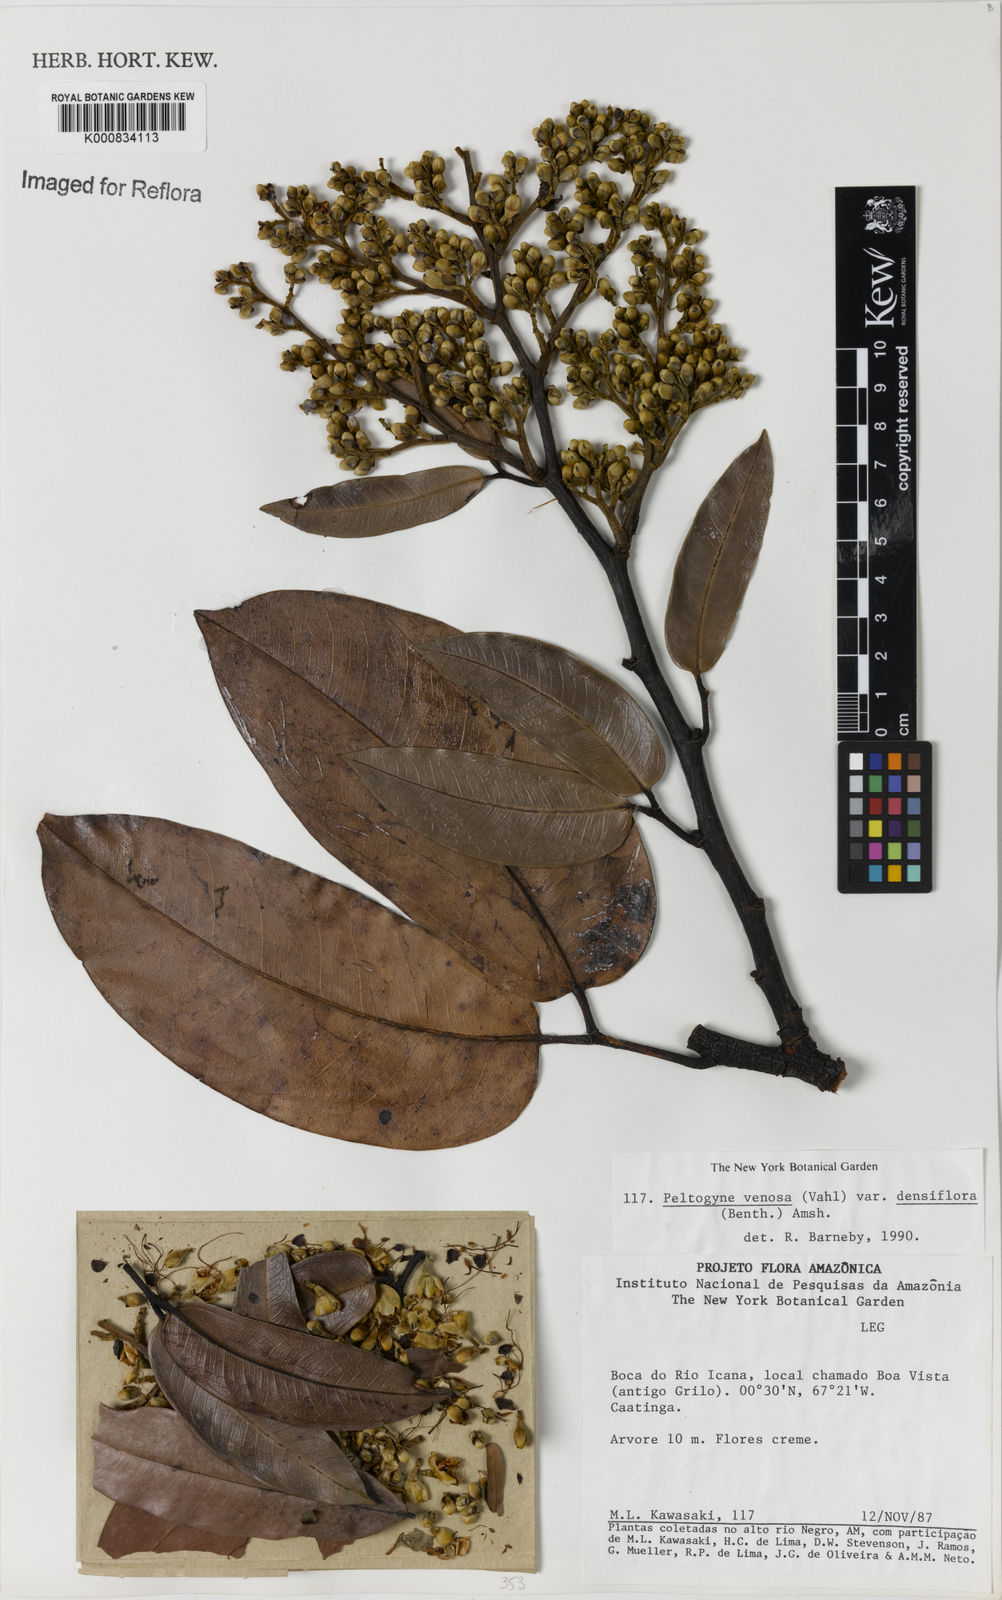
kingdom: Plantae
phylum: Tracheophyta
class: Magnoliopsida
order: Fabales
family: Fabaceae
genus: Peltogyne
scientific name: Peltogyne venosa
